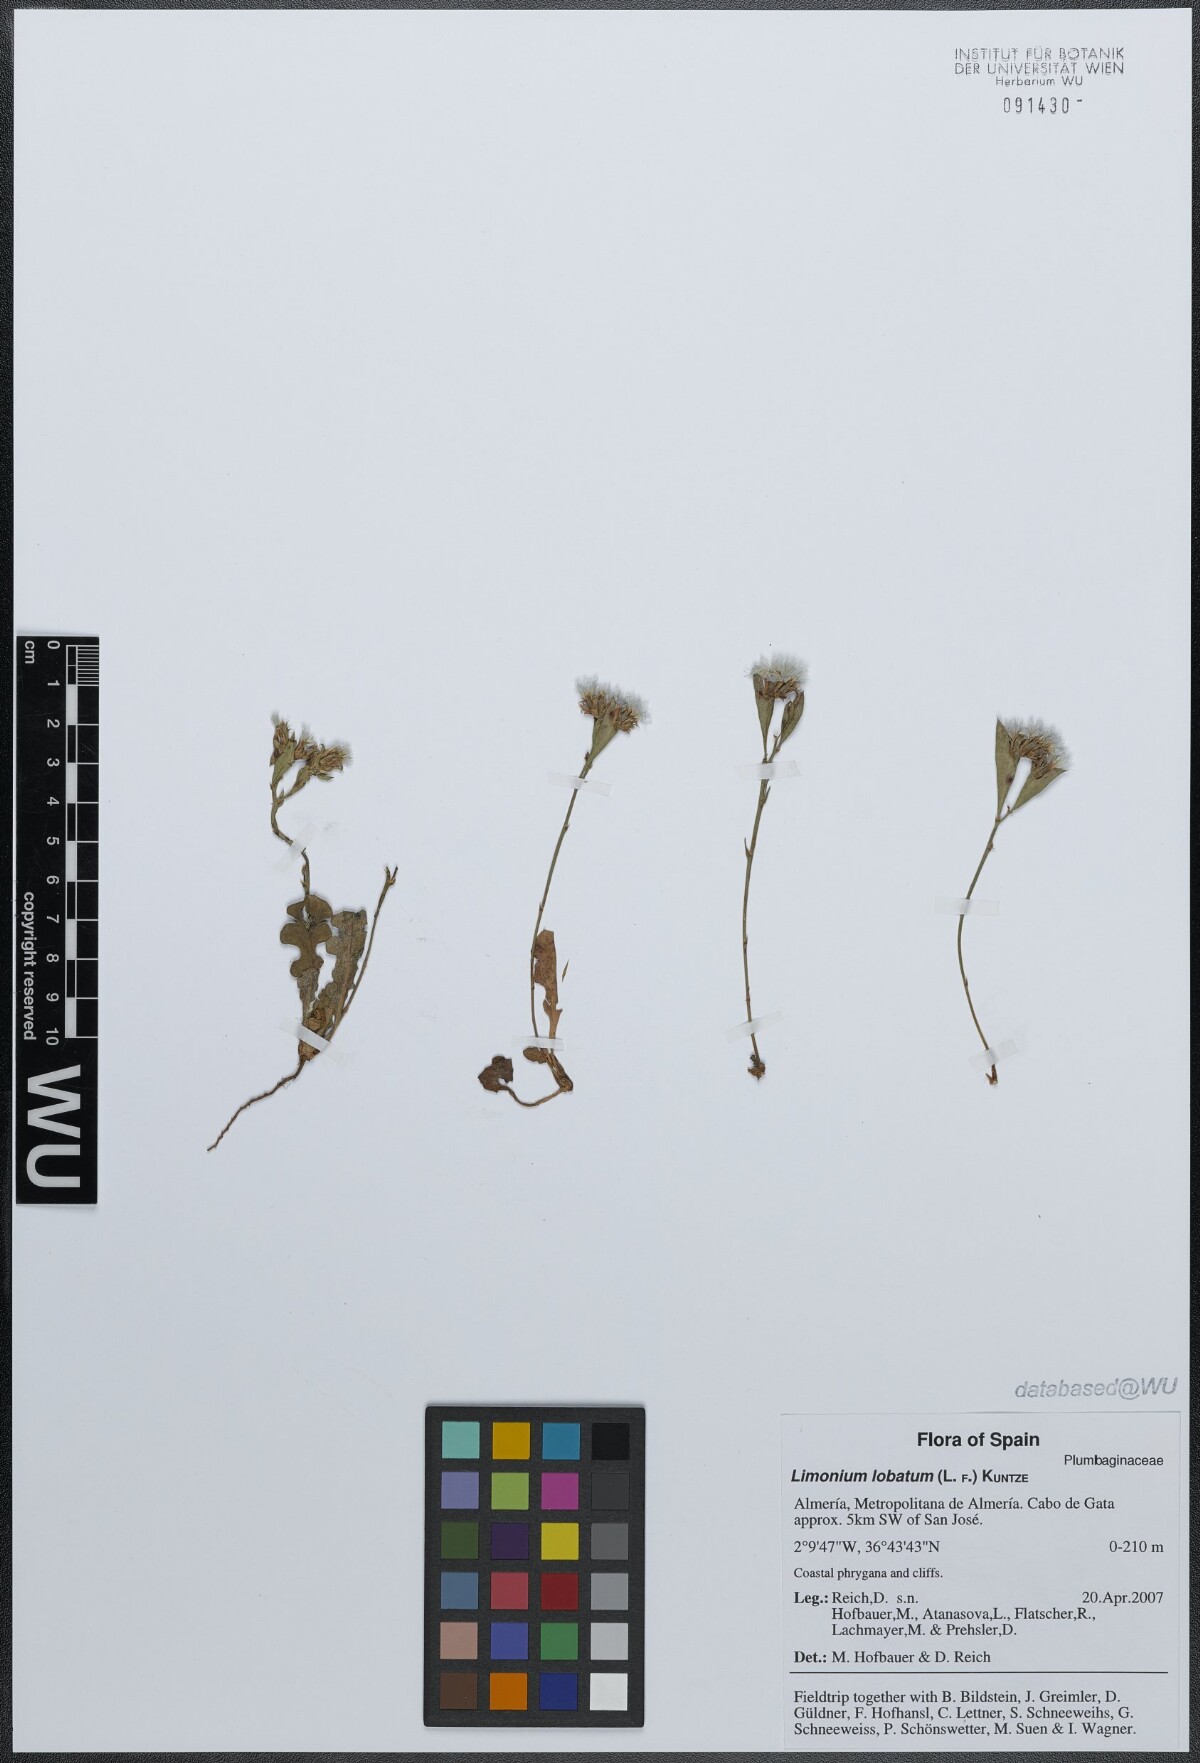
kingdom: Plantae
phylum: Tracheophyta
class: Magnoliopsida
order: Caryophyllales
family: Plumbaginaceae
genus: Limonium
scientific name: Limonium lobatum
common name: Winged sea-lavender
